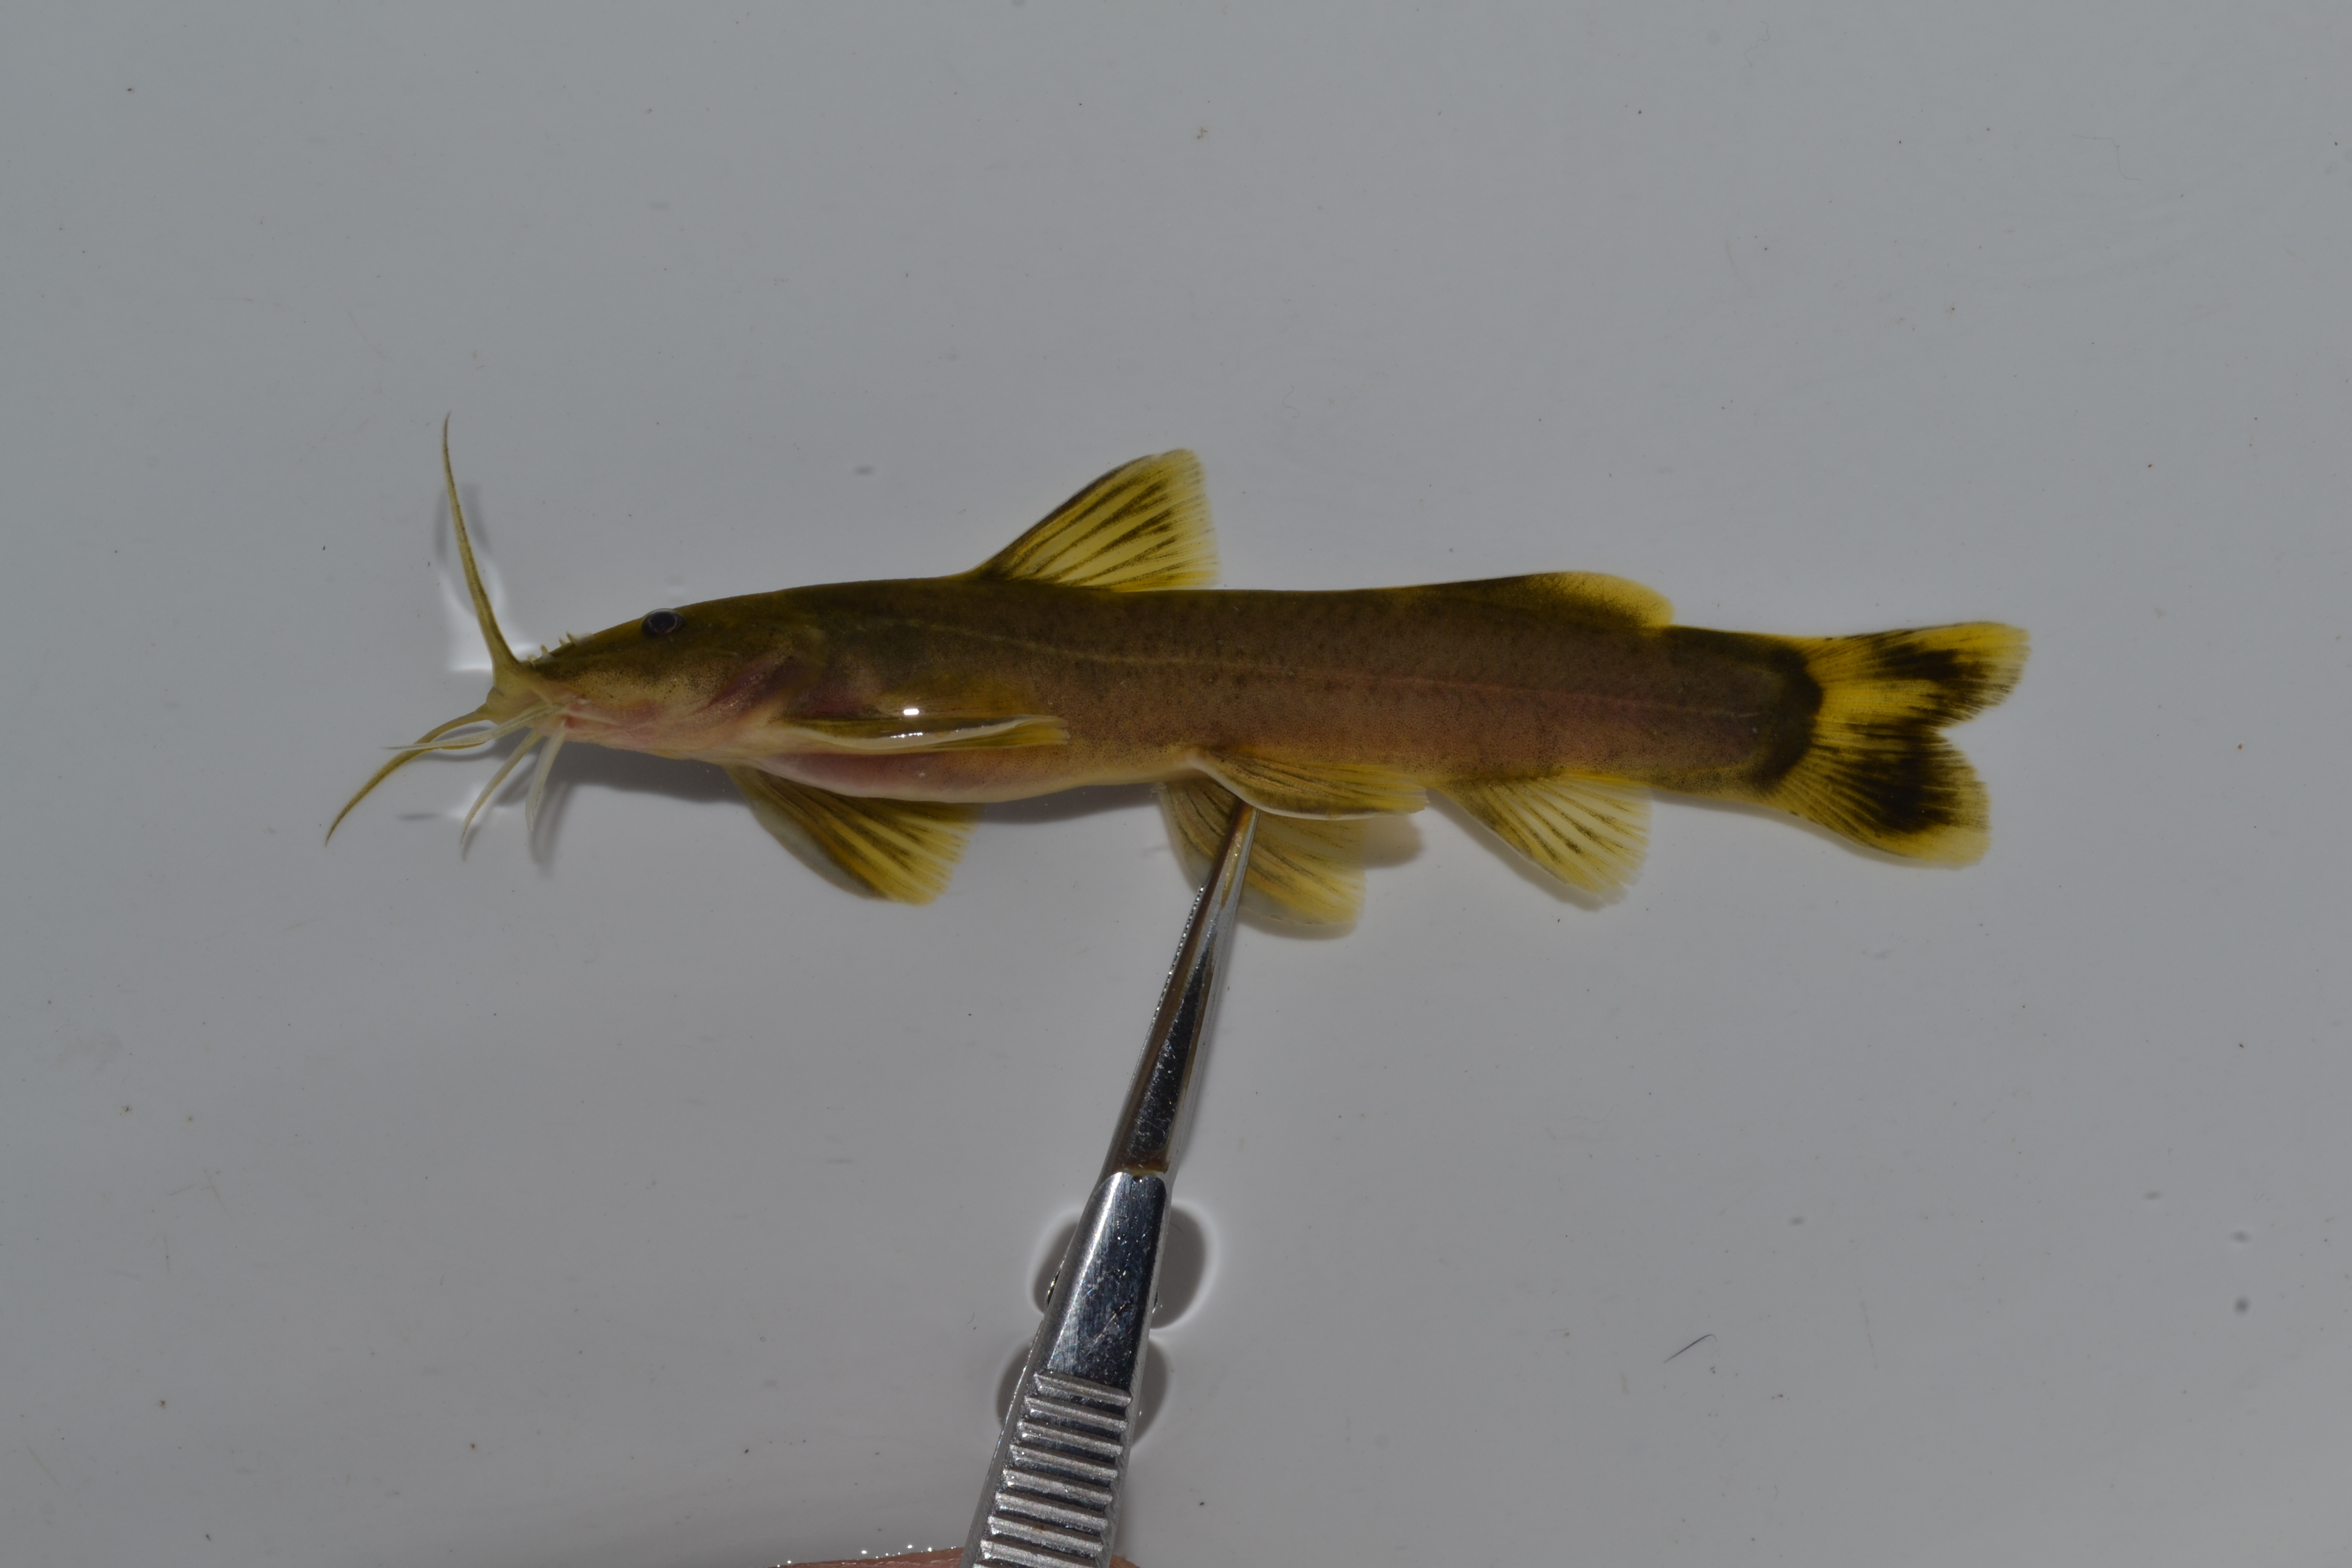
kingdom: Animalia
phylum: Chordata
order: Siluriformes
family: Amphiliidae
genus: Amphilius
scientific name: Amphilius uranoscopus
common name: Stargazer mountain catfish
